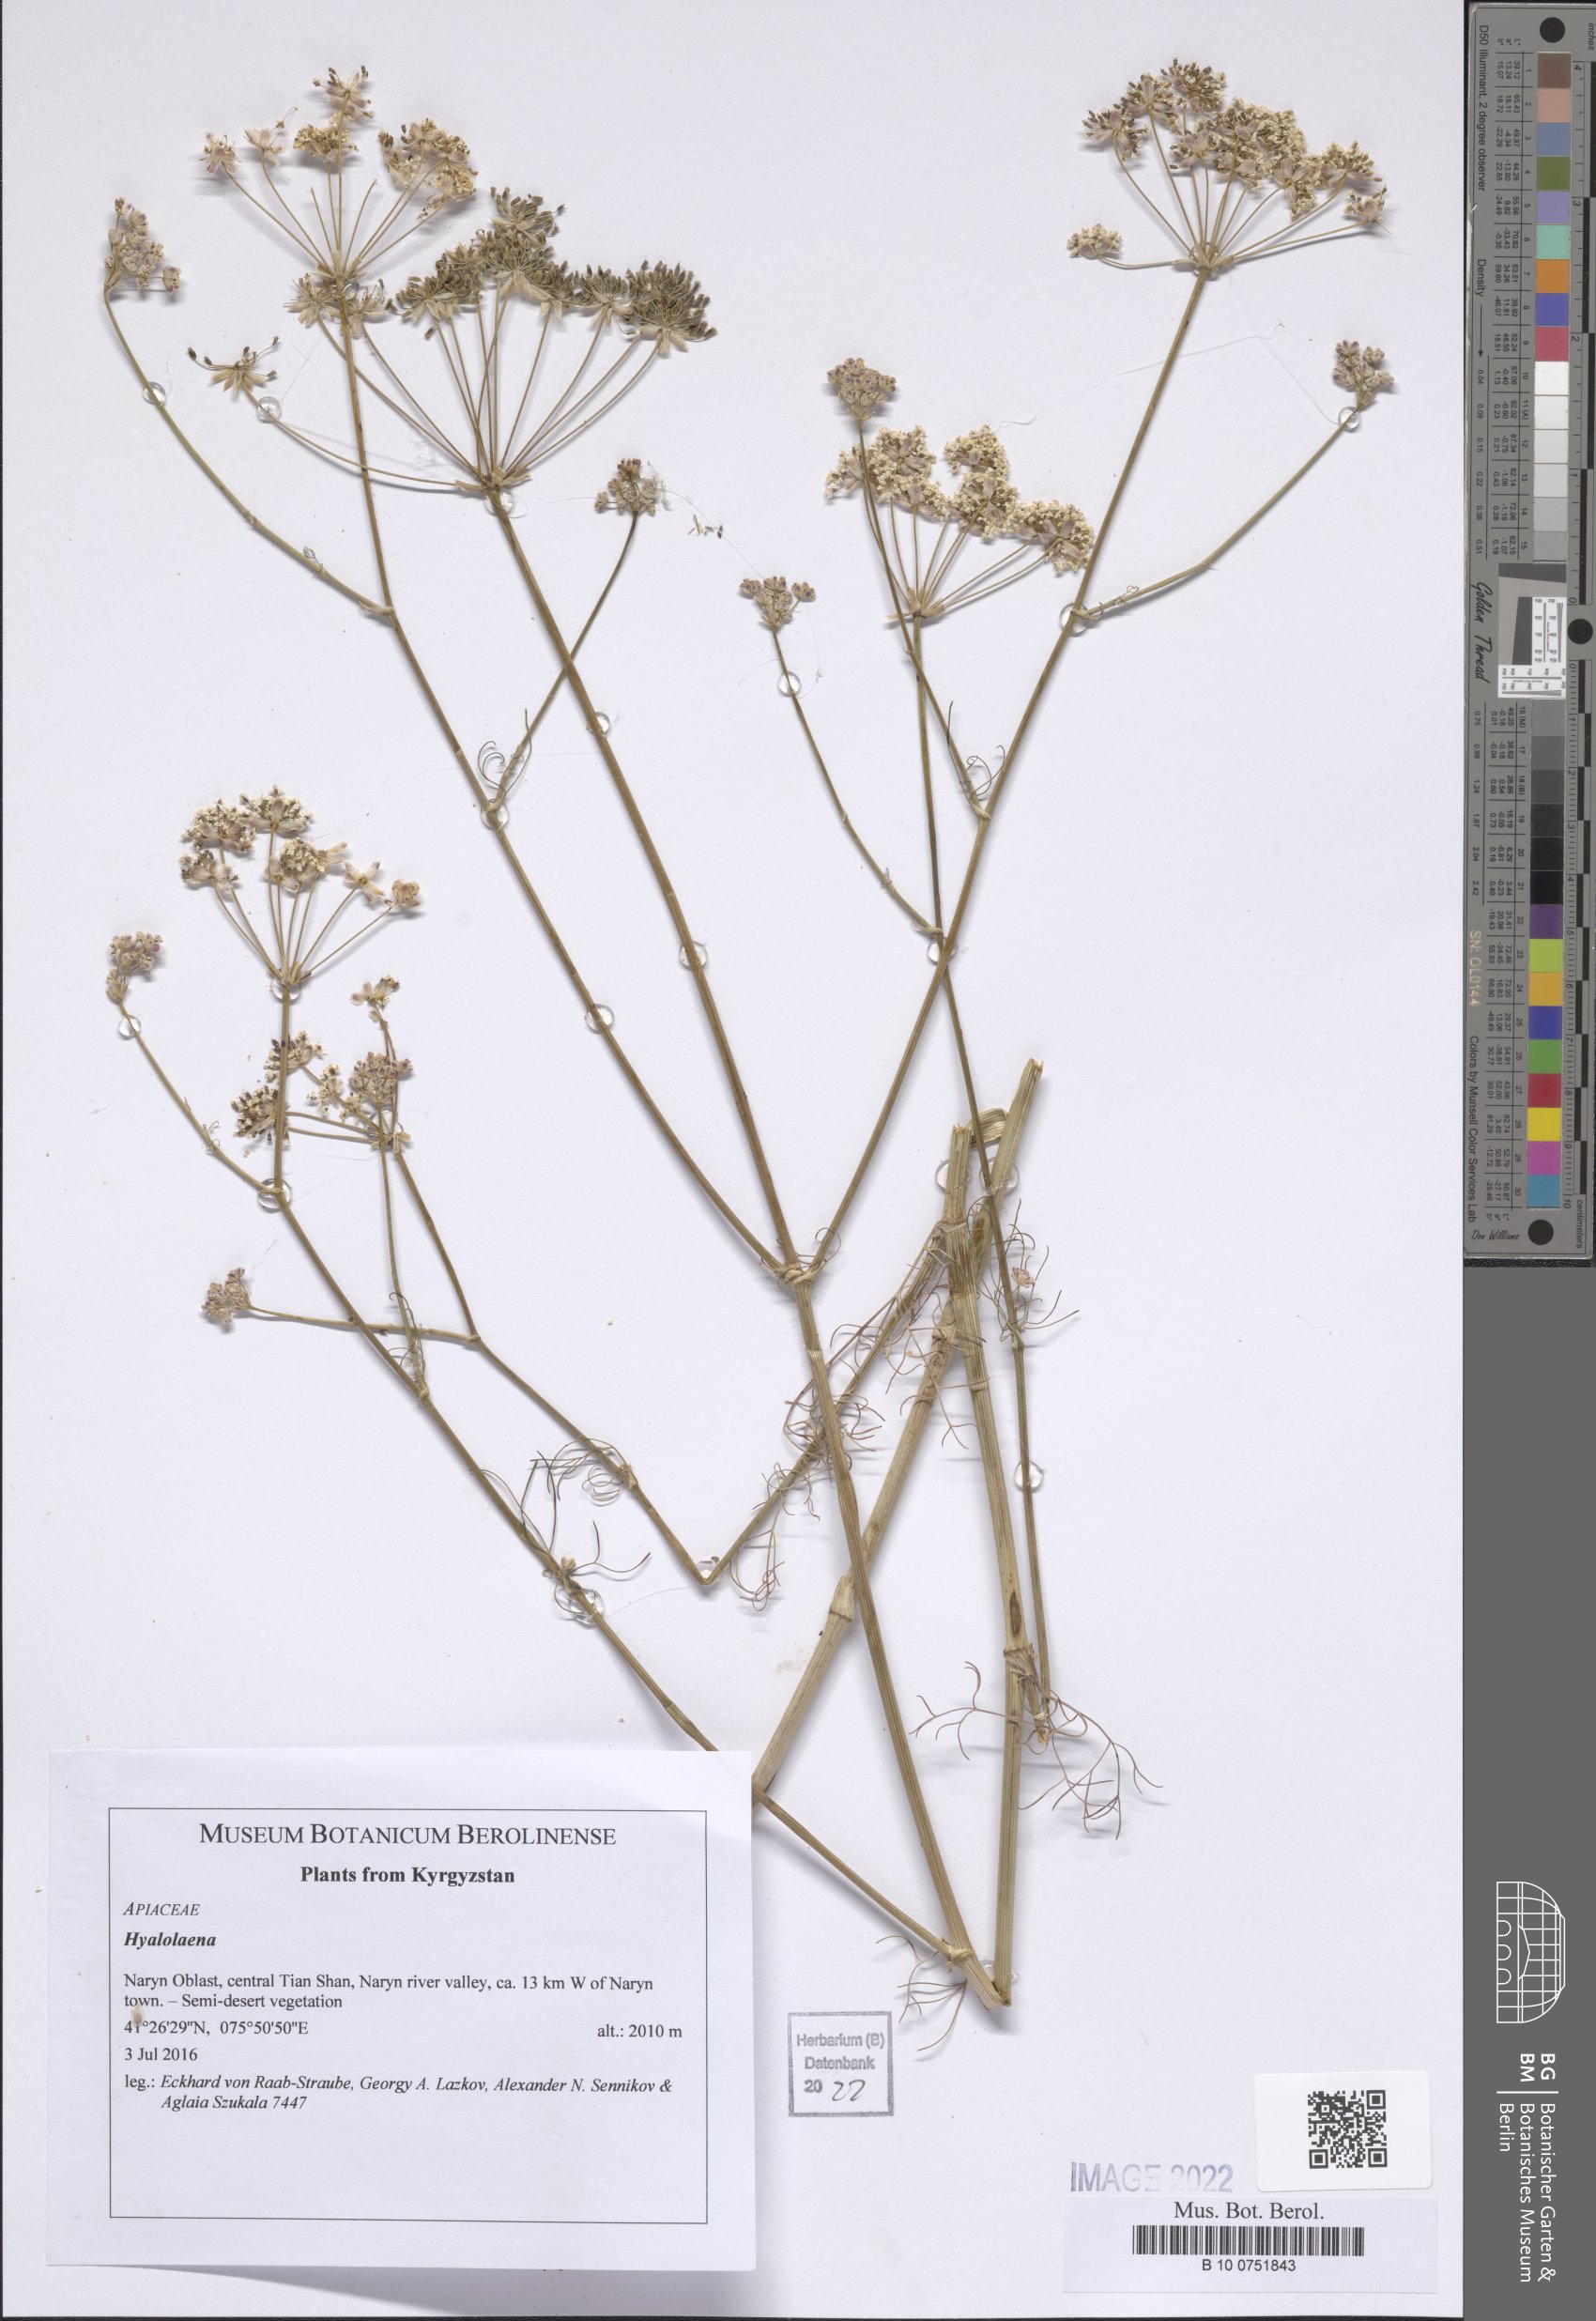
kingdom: Plantae
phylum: Tracheophyta
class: Magnoliopsida
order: Apiales
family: Apiaceae
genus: Hyalolaena
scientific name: Hyalolaena
